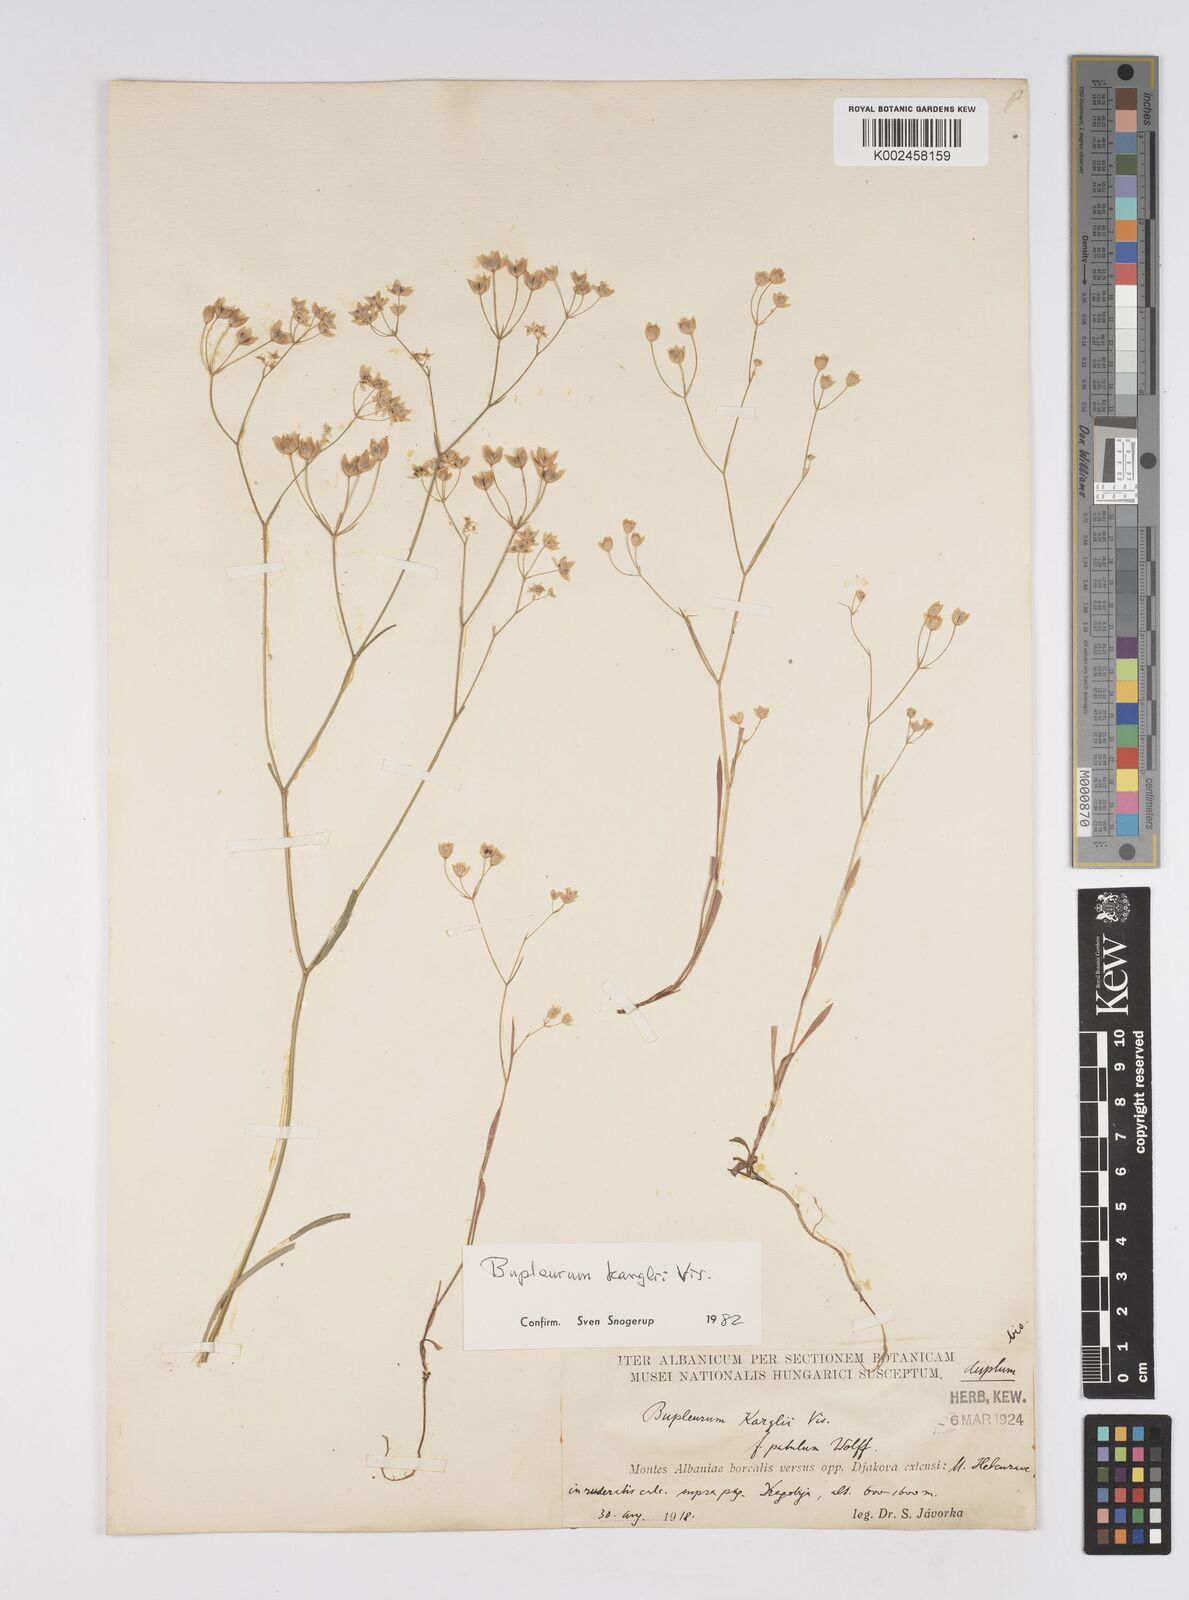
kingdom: Plantae
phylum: Tracheophyta
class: Magnoliopsida
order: Apiales
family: Apiaceae
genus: Bupleurum
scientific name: Bupleurum karglii
